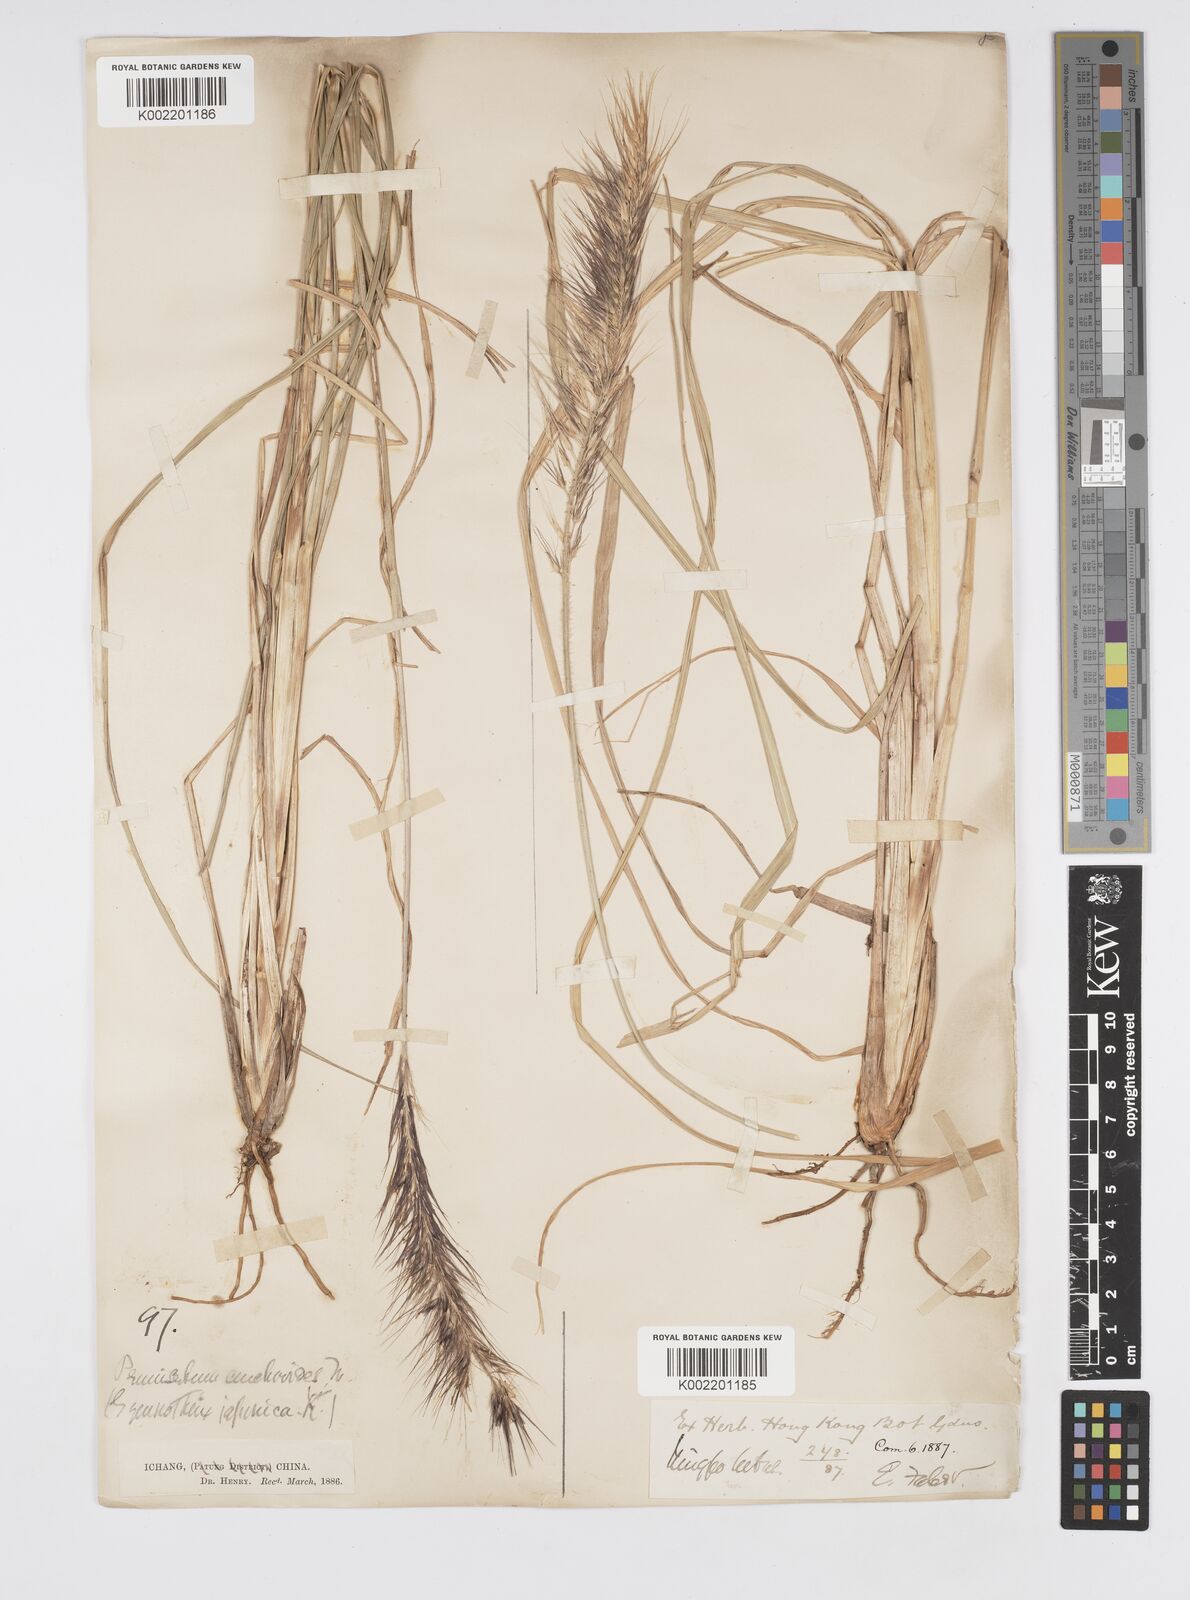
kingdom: Plantae
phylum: Tracheophyta
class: Liliopsida
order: Poales
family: Poaceae
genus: Cenchrus
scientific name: Cenchrus alopecuroides
